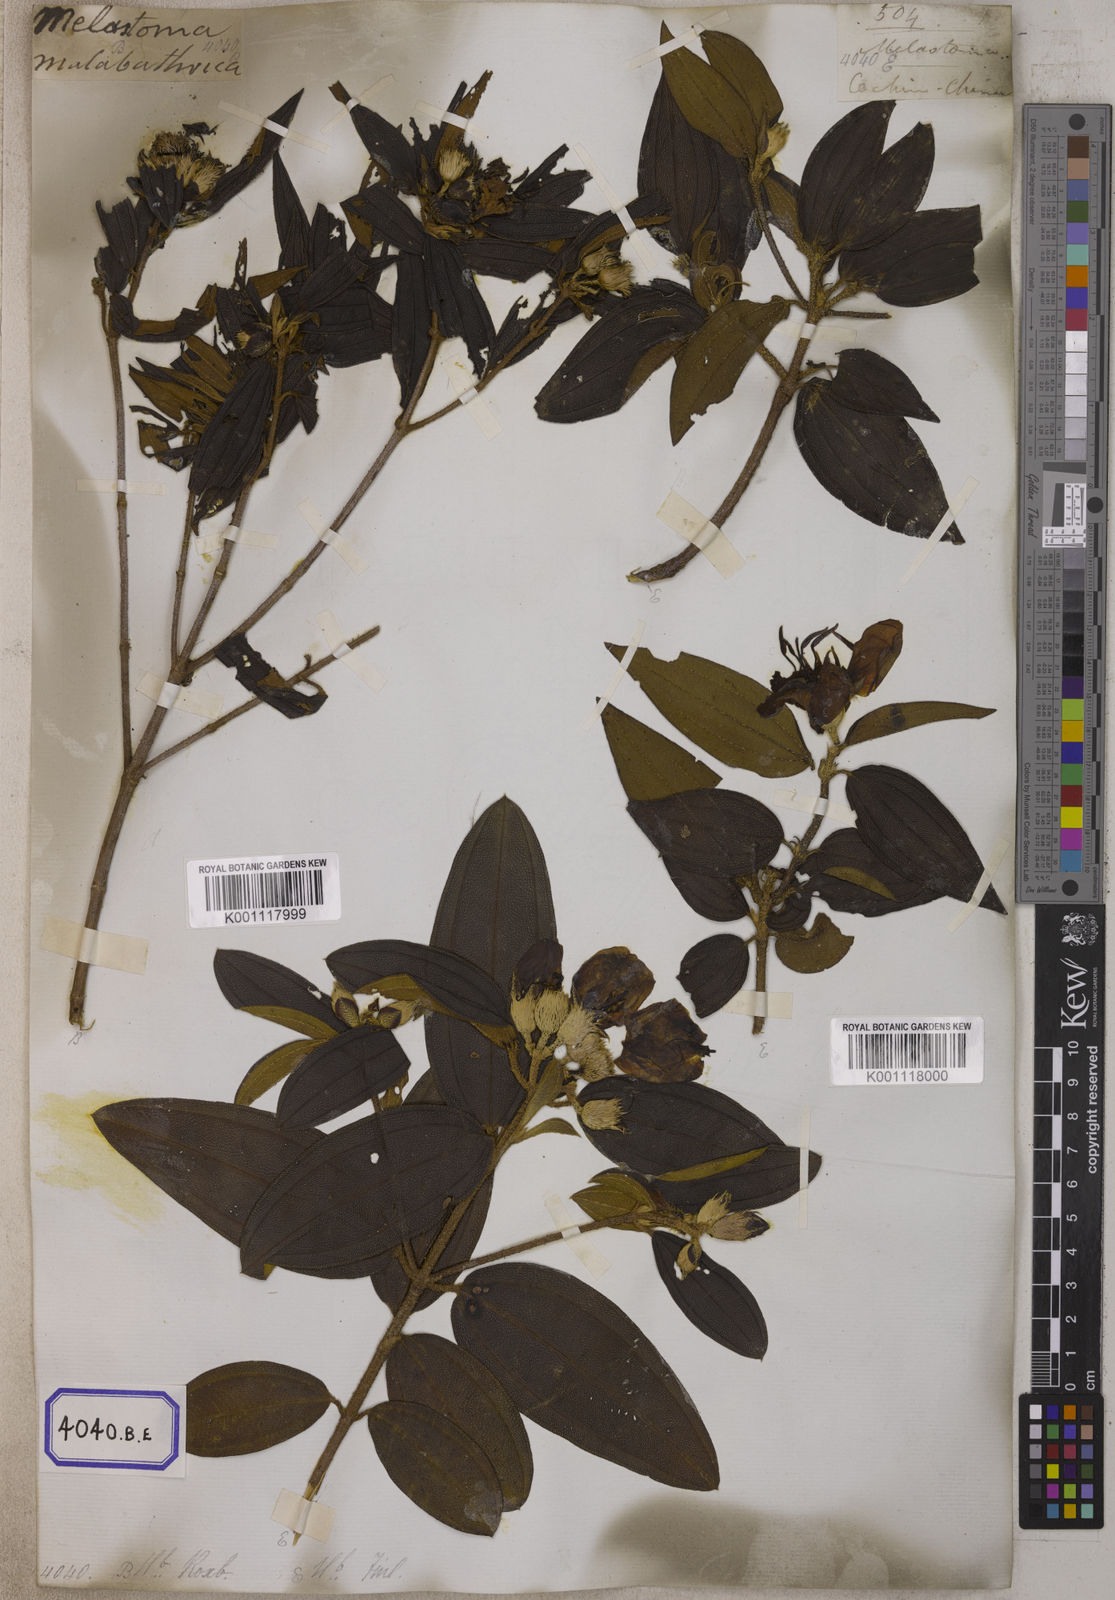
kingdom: Plantae
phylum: Tracheophyta
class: Magnoliopsida
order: Myrtales
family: Melastomataceae
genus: Melastoma
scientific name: Melastoma malabathricum
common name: Indian-rhododendron
